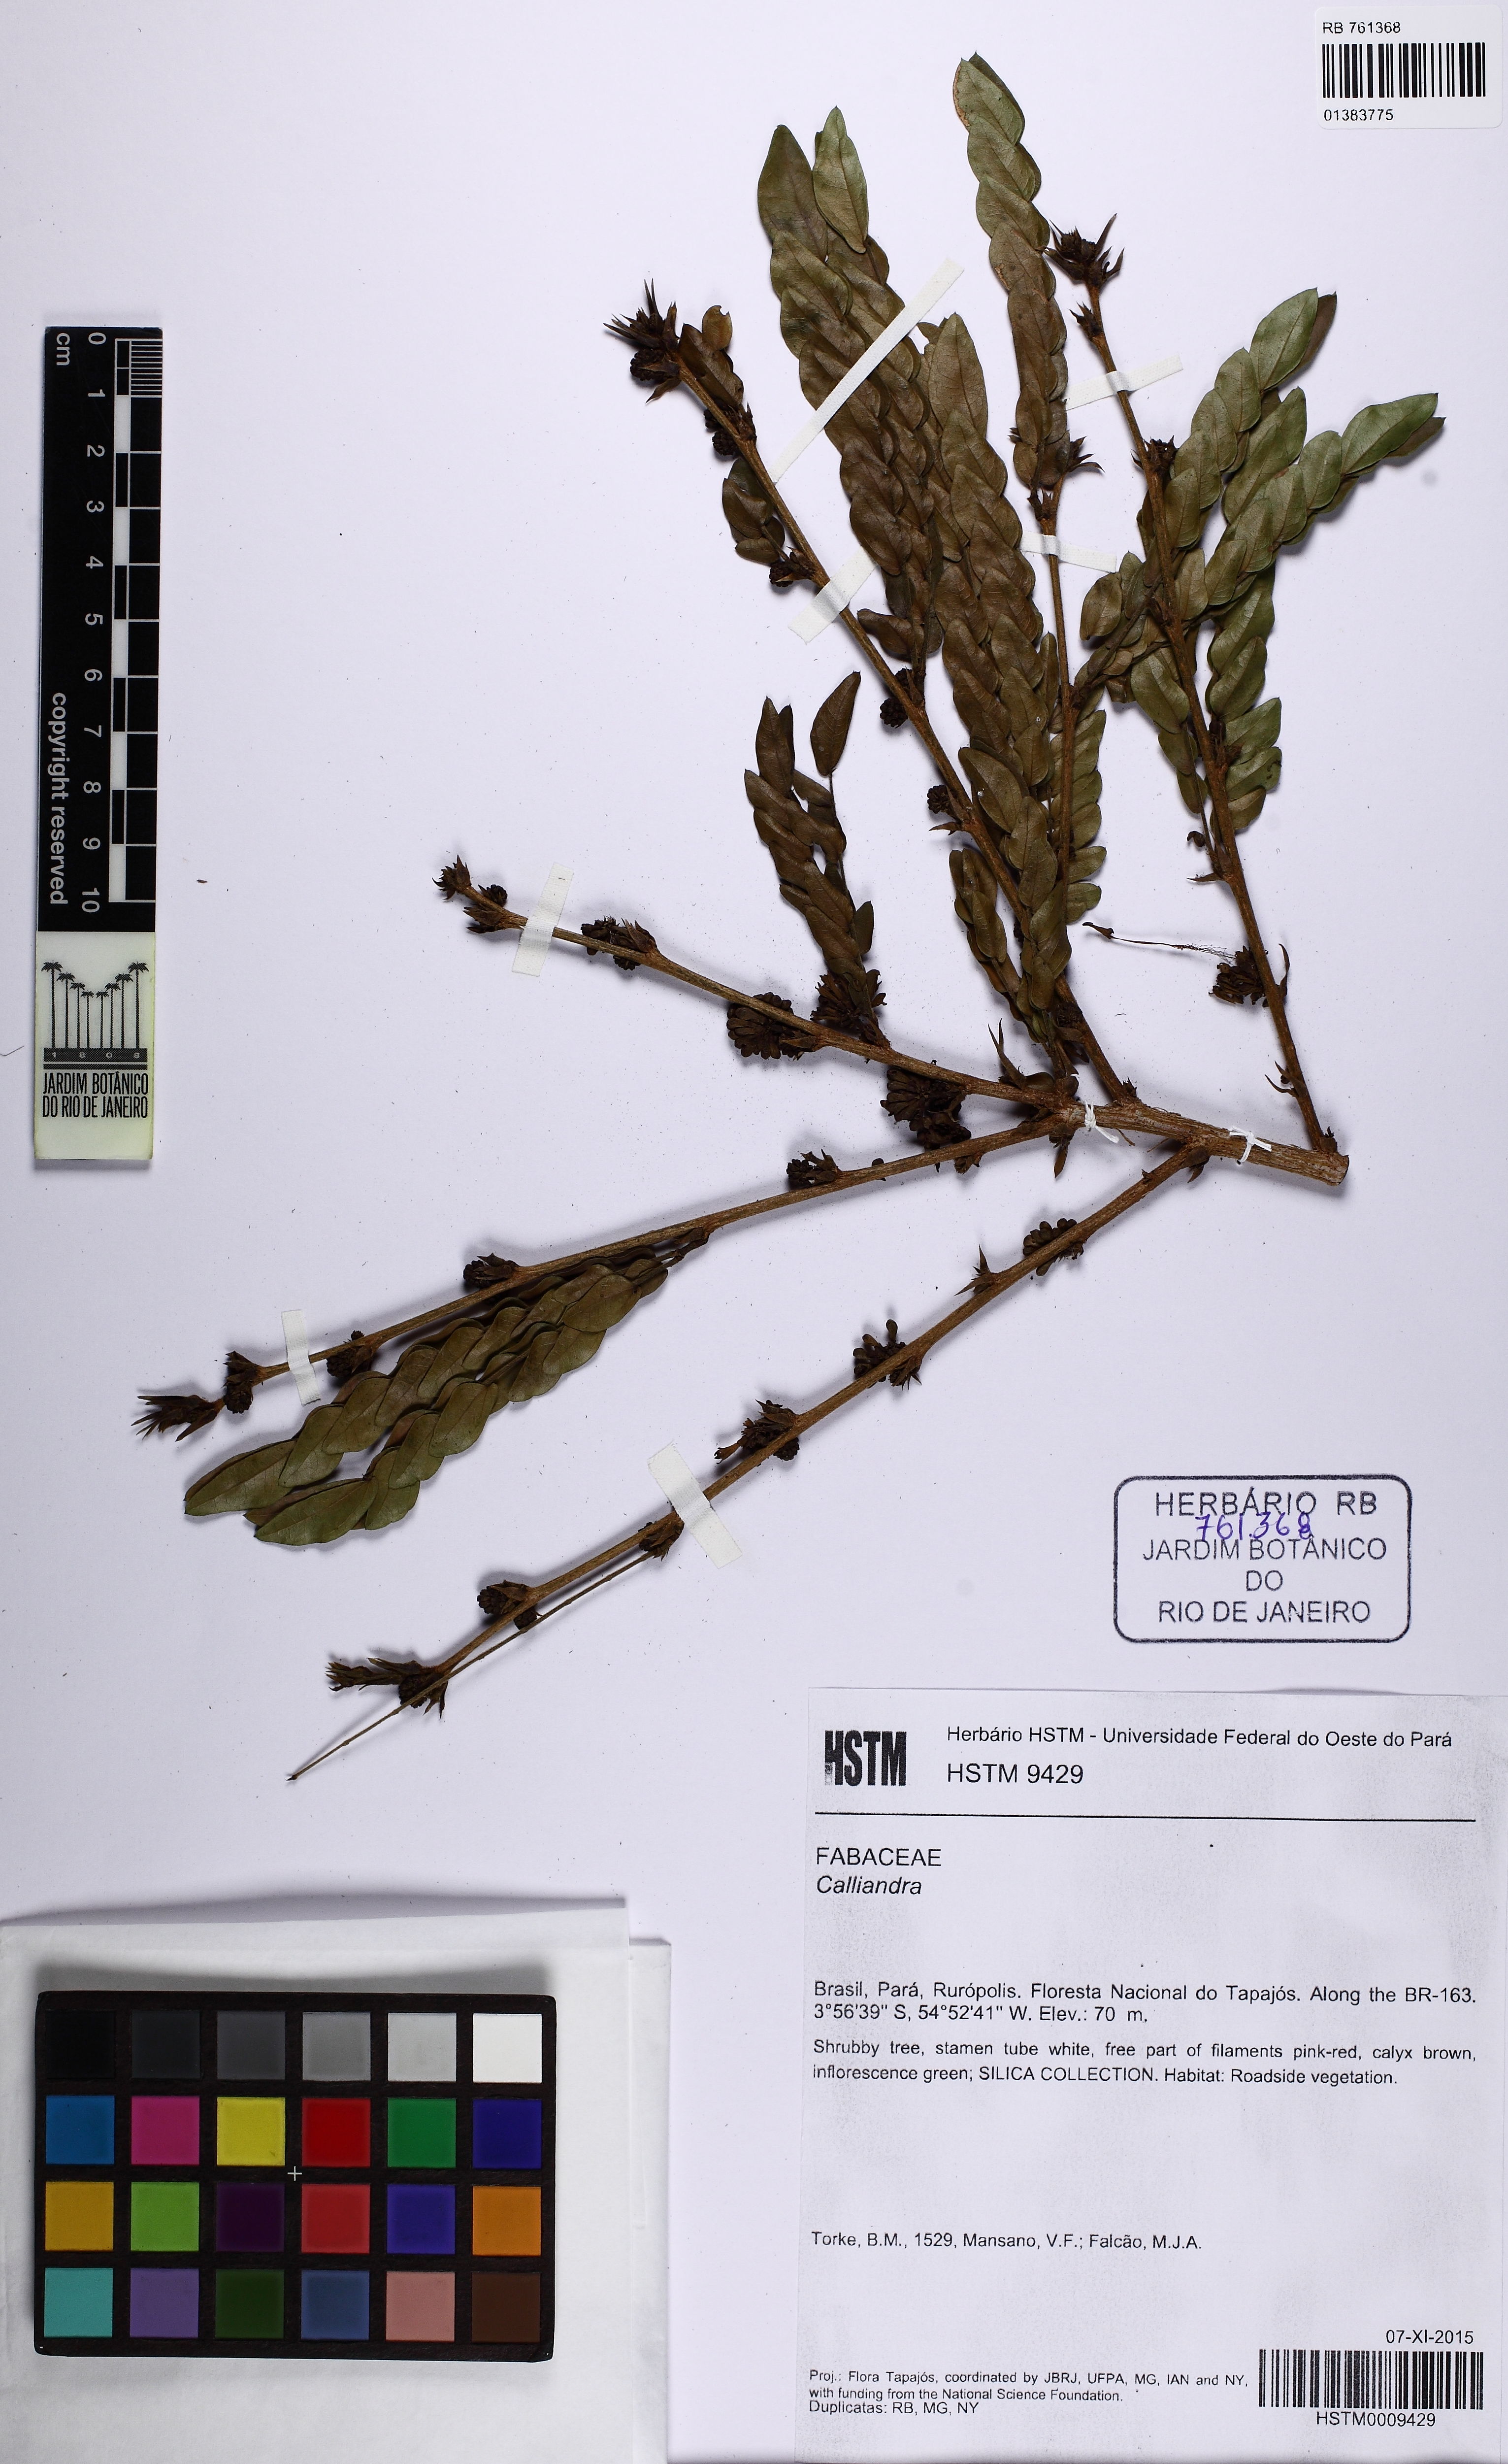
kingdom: Plantae
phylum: Tracheophyta
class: Magnoliopsida
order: Fabales
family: Fabaceae
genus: Calliandra
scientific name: Calliandra
